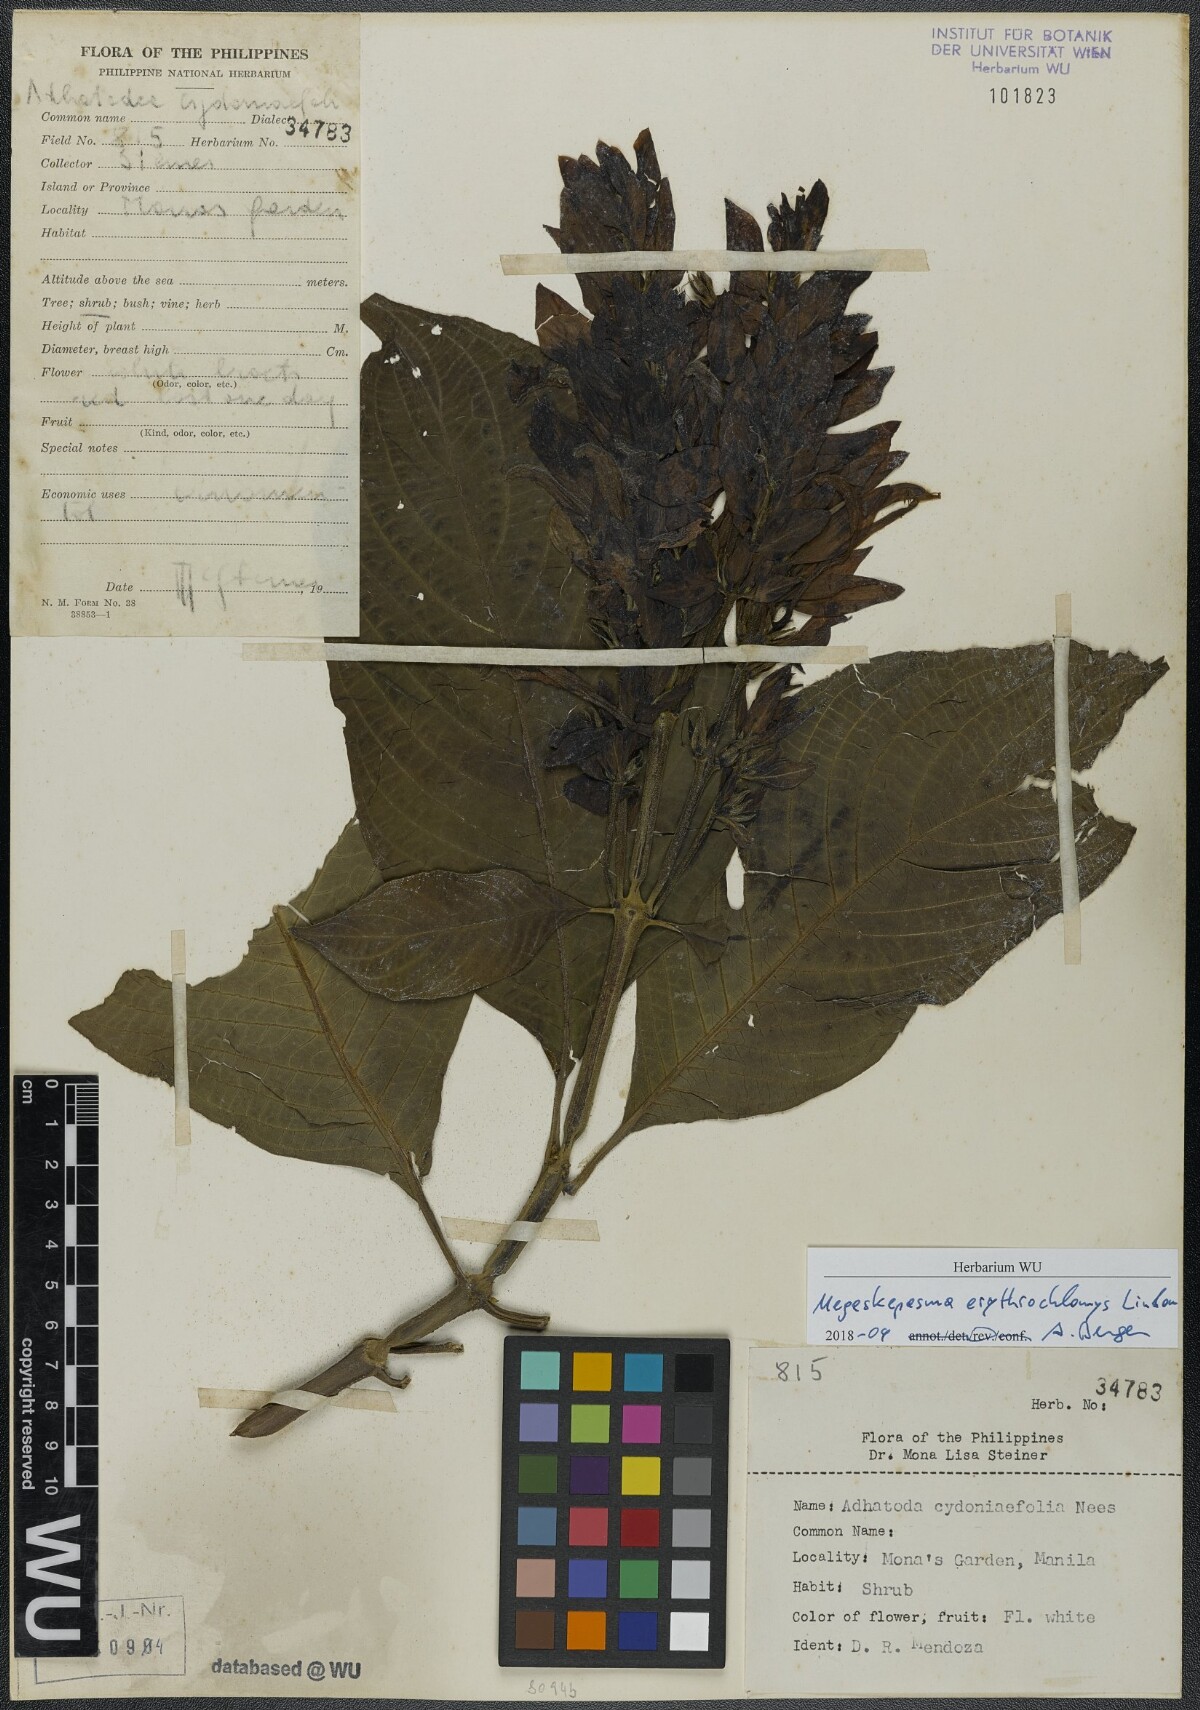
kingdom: Plantae
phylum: Tracheophyta
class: Magnoliopsida
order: Lamiales
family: Acanthaceae
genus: Megaskepasma
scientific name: Megaskepasma erythrochlamys
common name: Brazilian red-cloak
